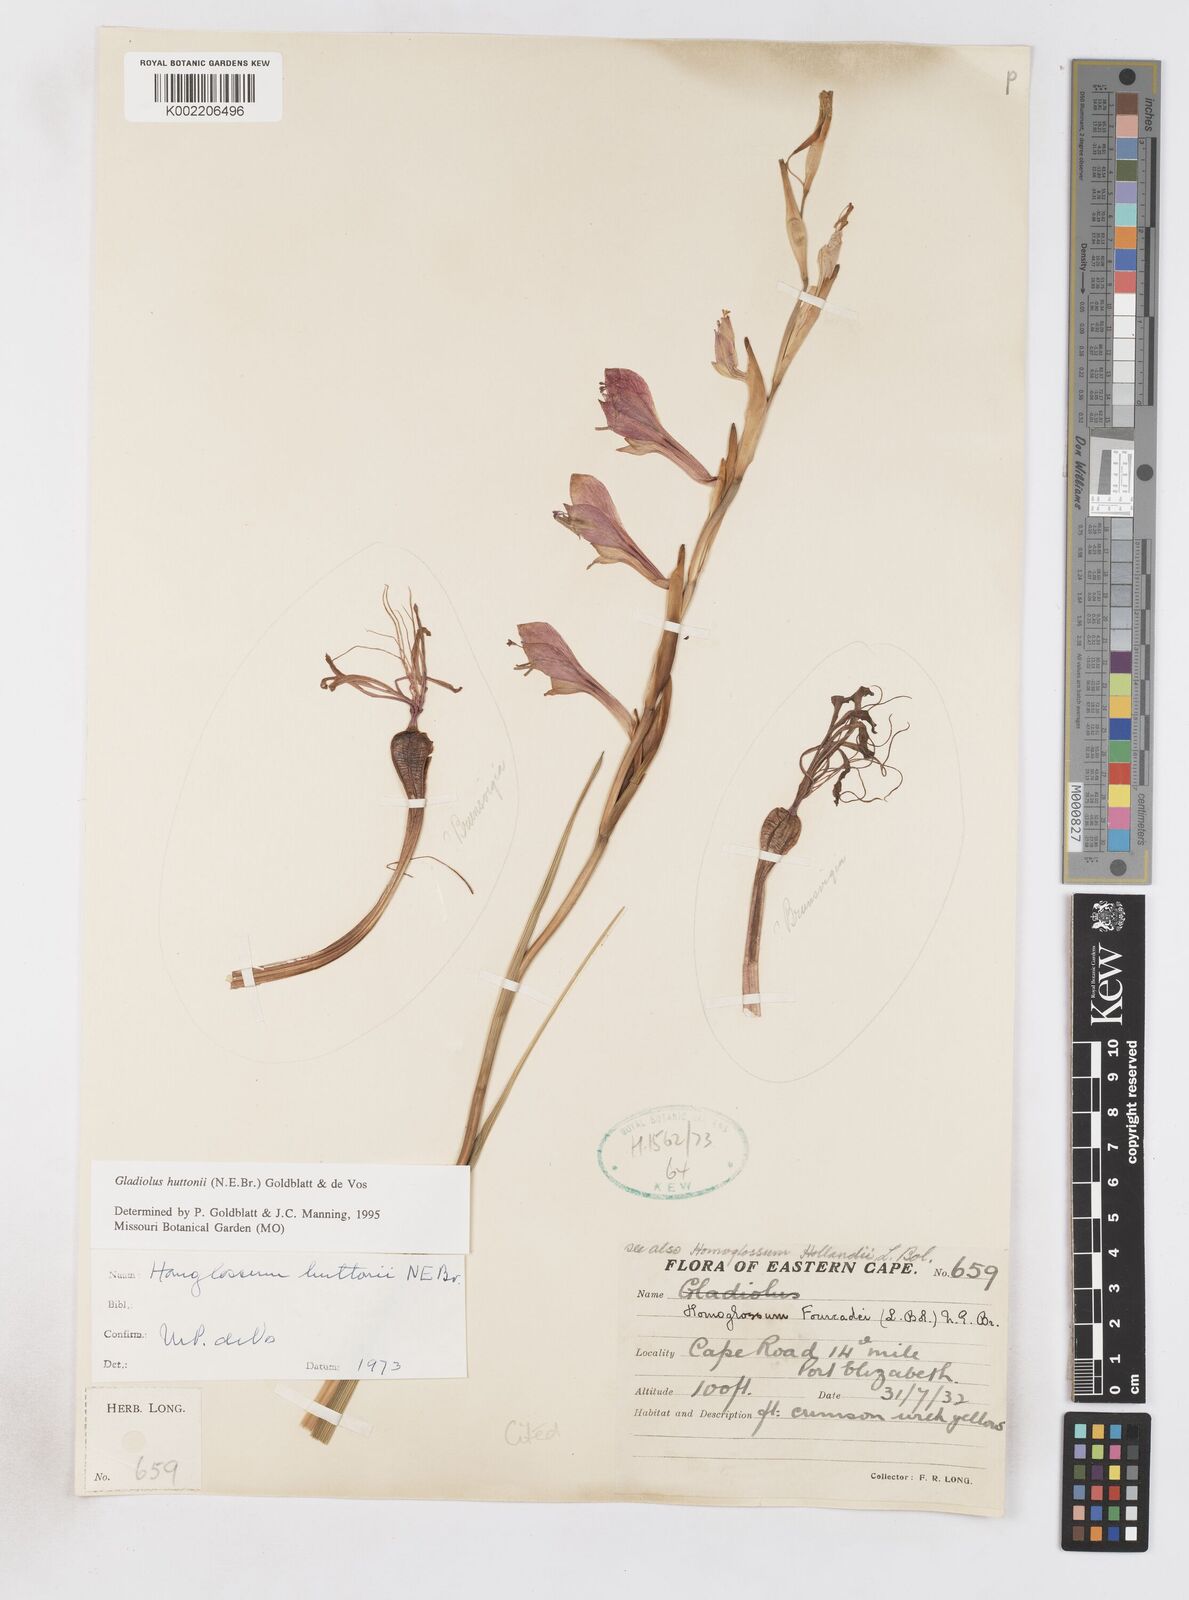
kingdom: Plantae
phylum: Tracheophyta
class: Liliopsida
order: Asparagales
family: Iridaceae
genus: Gladiolus
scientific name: Gladiolus huttonii
